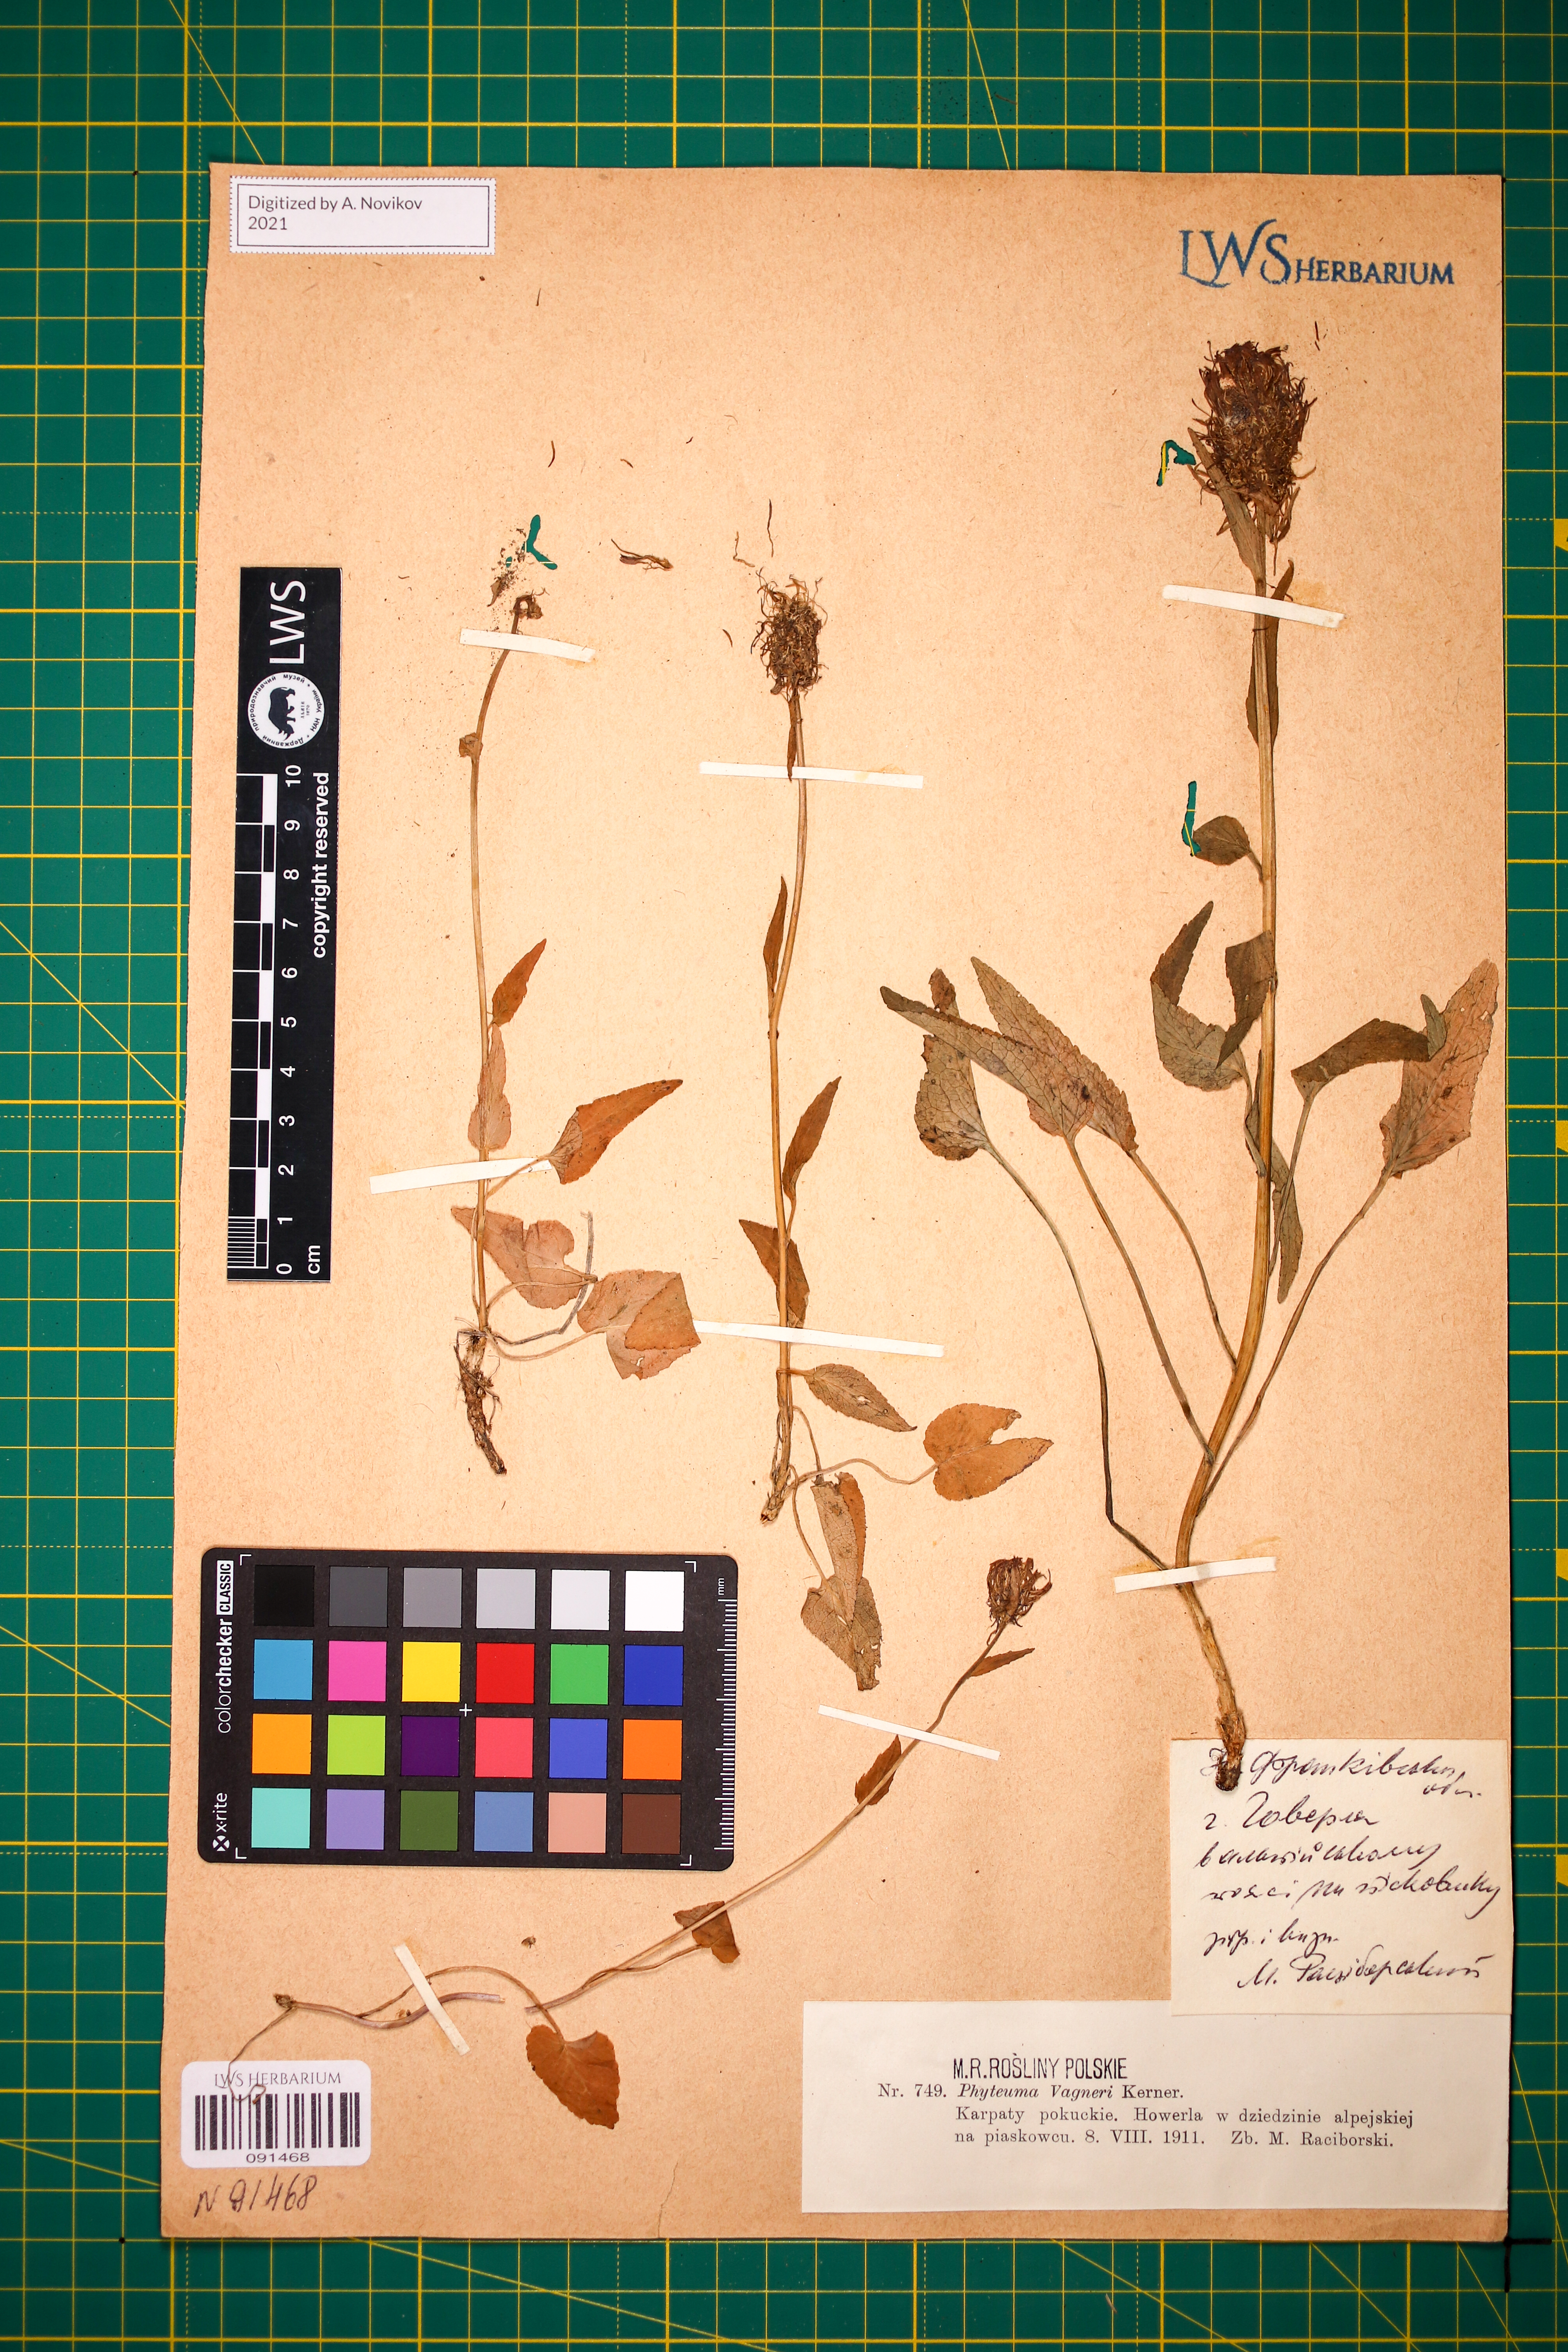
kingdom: Plantae
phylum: Tracheophyta
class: Magnoliopsida
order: Asterales
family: Campanulaceae
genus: Phyteuma
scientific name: Phyteuma vagneri
